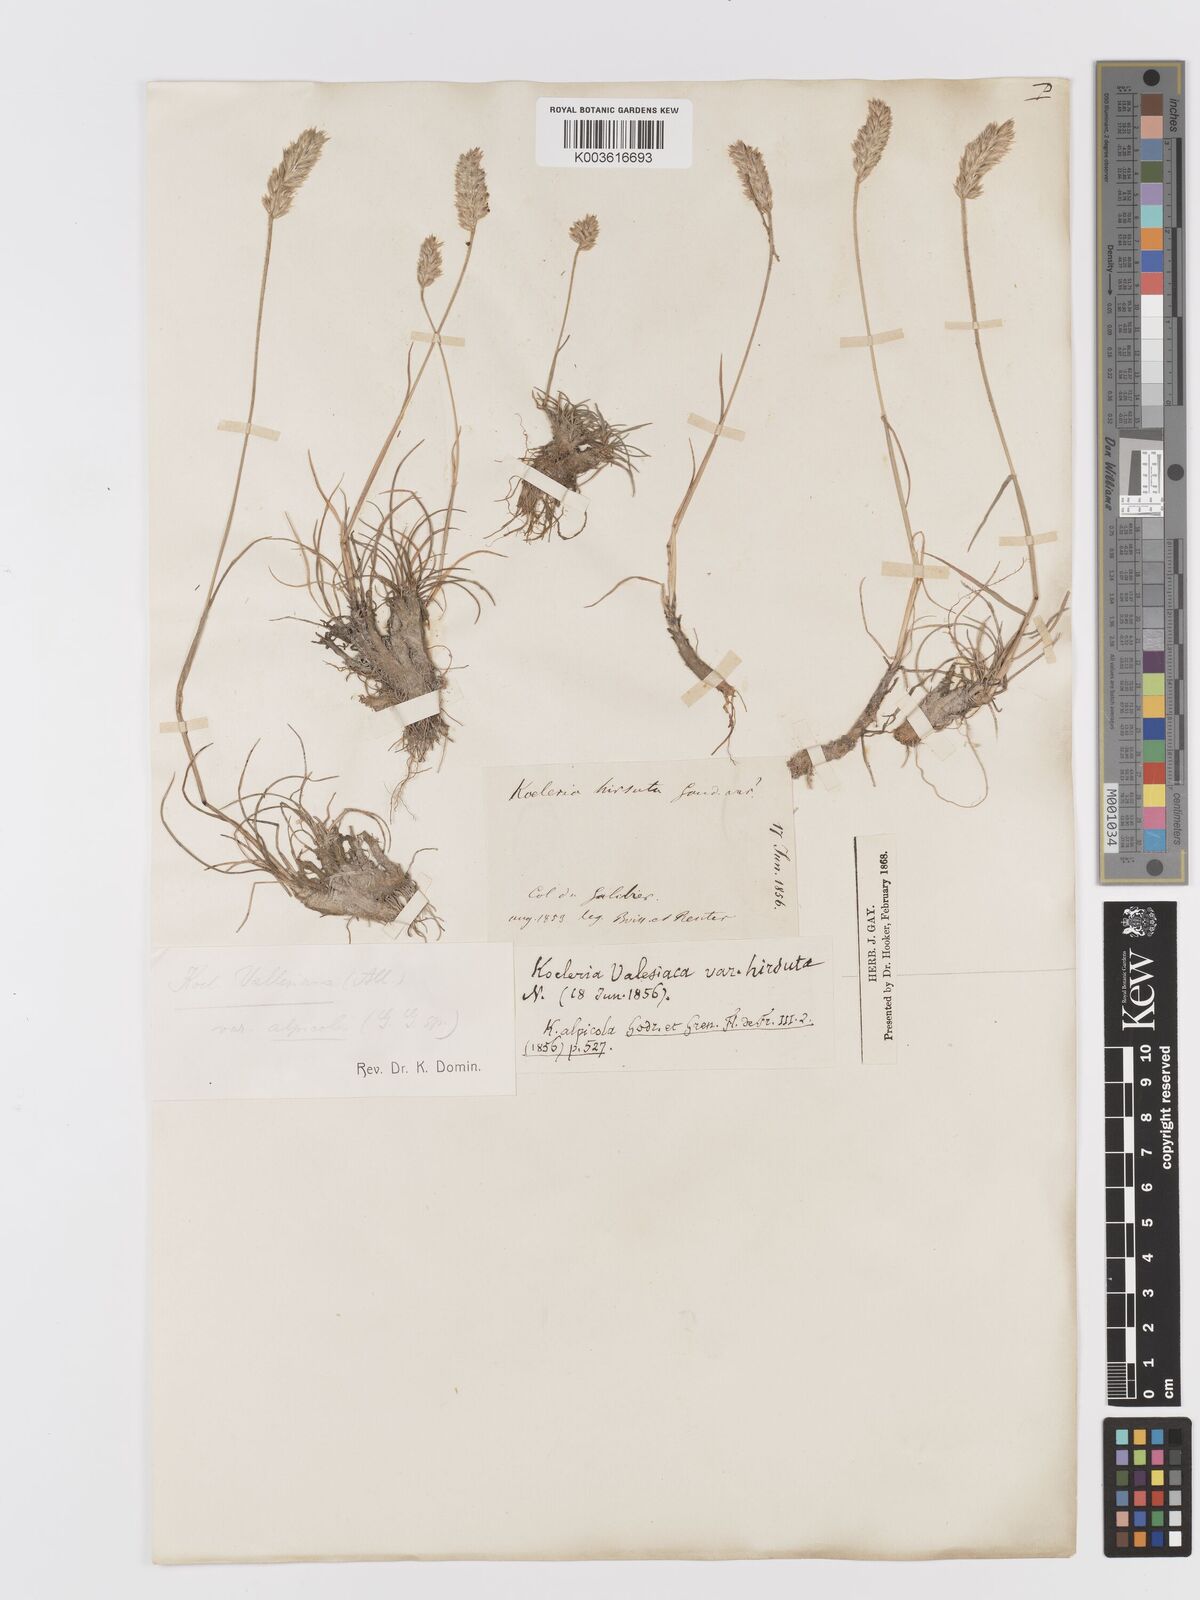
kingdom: Plantae
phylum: Tracheophyta
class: Liliopsida
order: Poales
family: Poaceae
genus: Koeleria
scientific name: Koeleria hirsuta
